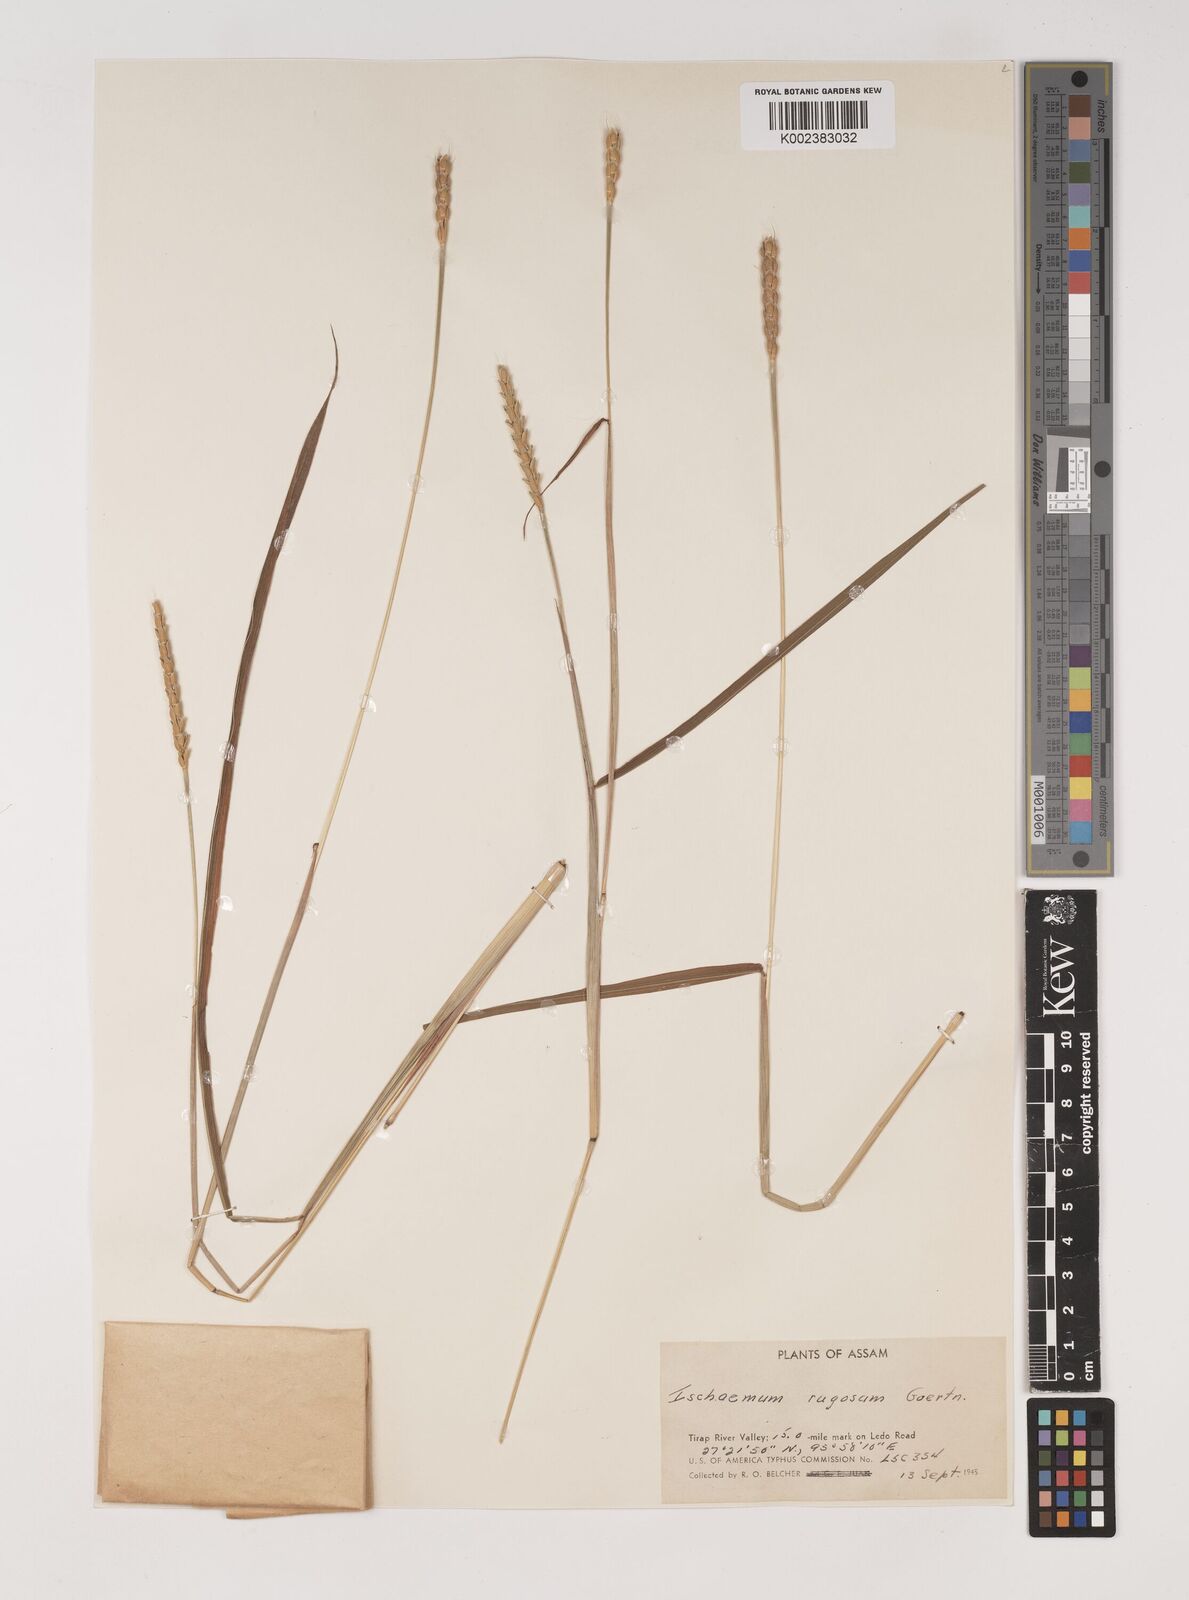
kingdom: Plantae
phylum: Tracheophyta
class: Liliopsida
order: Poales
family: Poaceae
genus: Ischaemum
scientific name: Ischaemum rugosum
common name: Saramatta grass
